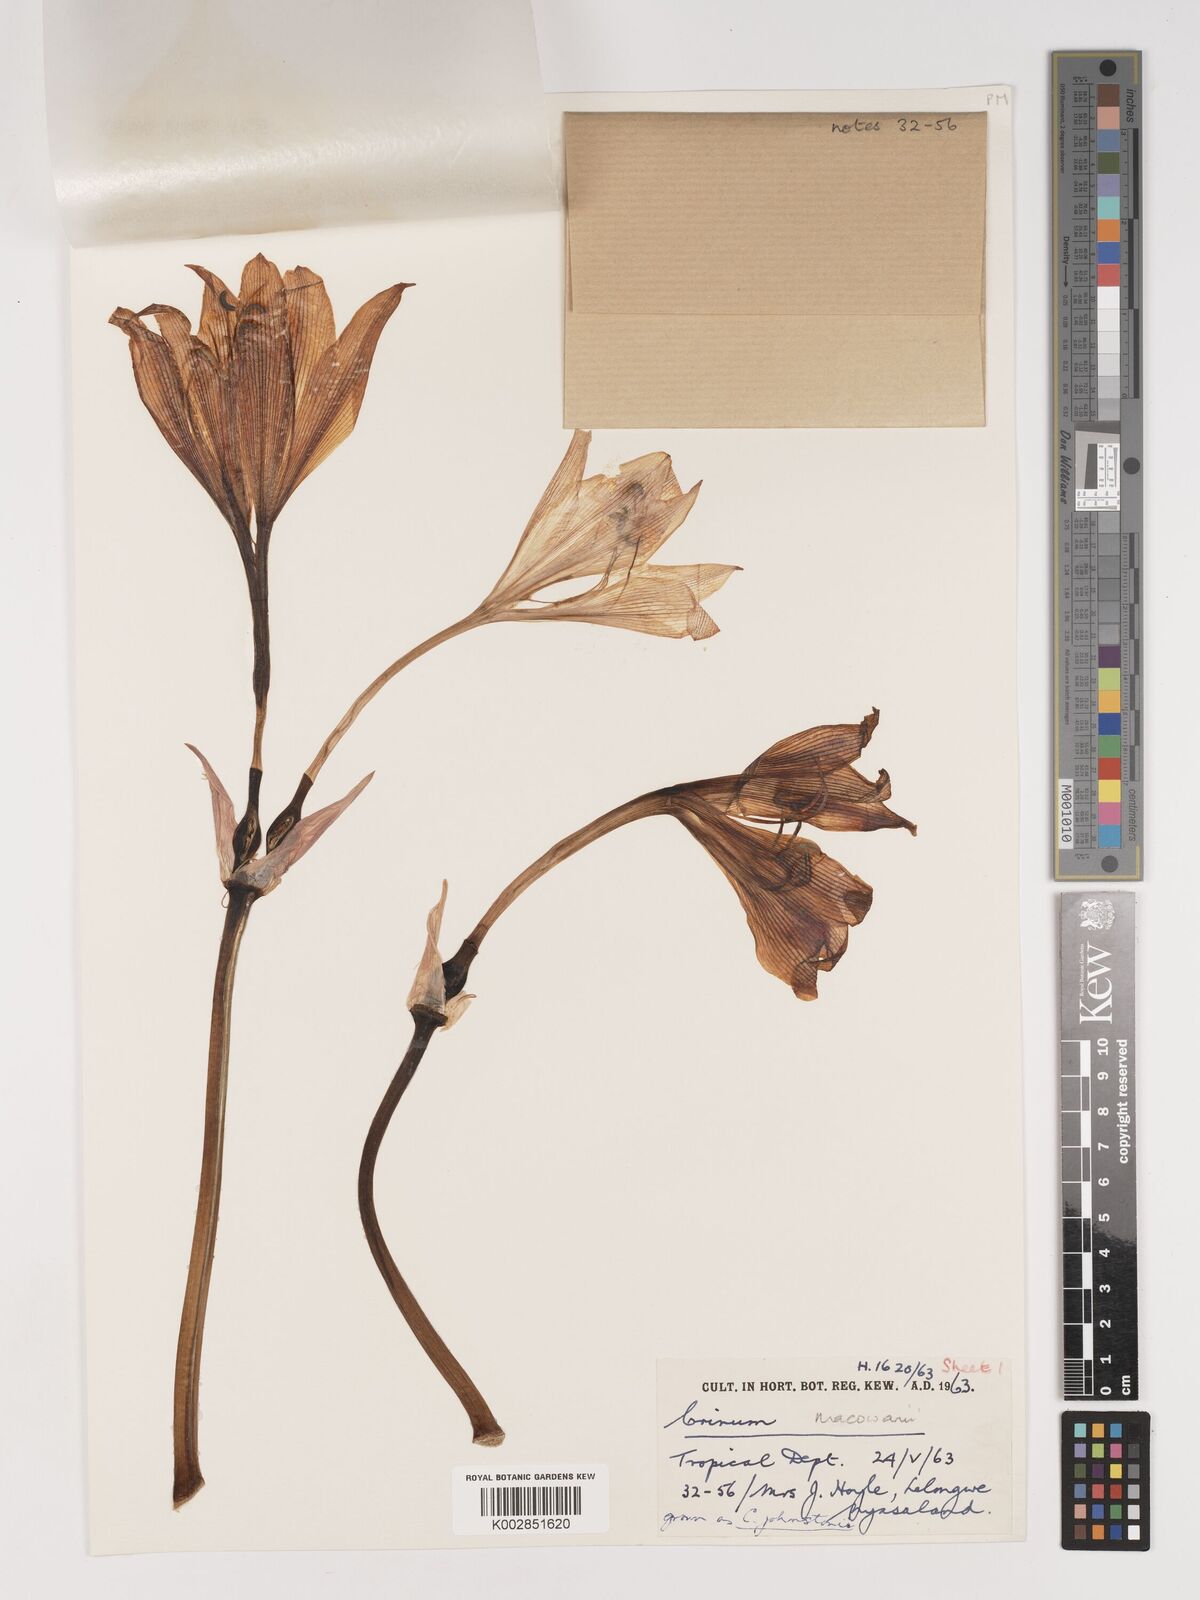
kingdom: Plantae
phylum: Tracheophyta
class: Liliopsida
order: Asparagales
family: Amaryllidaceae
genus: Crinum
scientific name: Crinum macowanii
